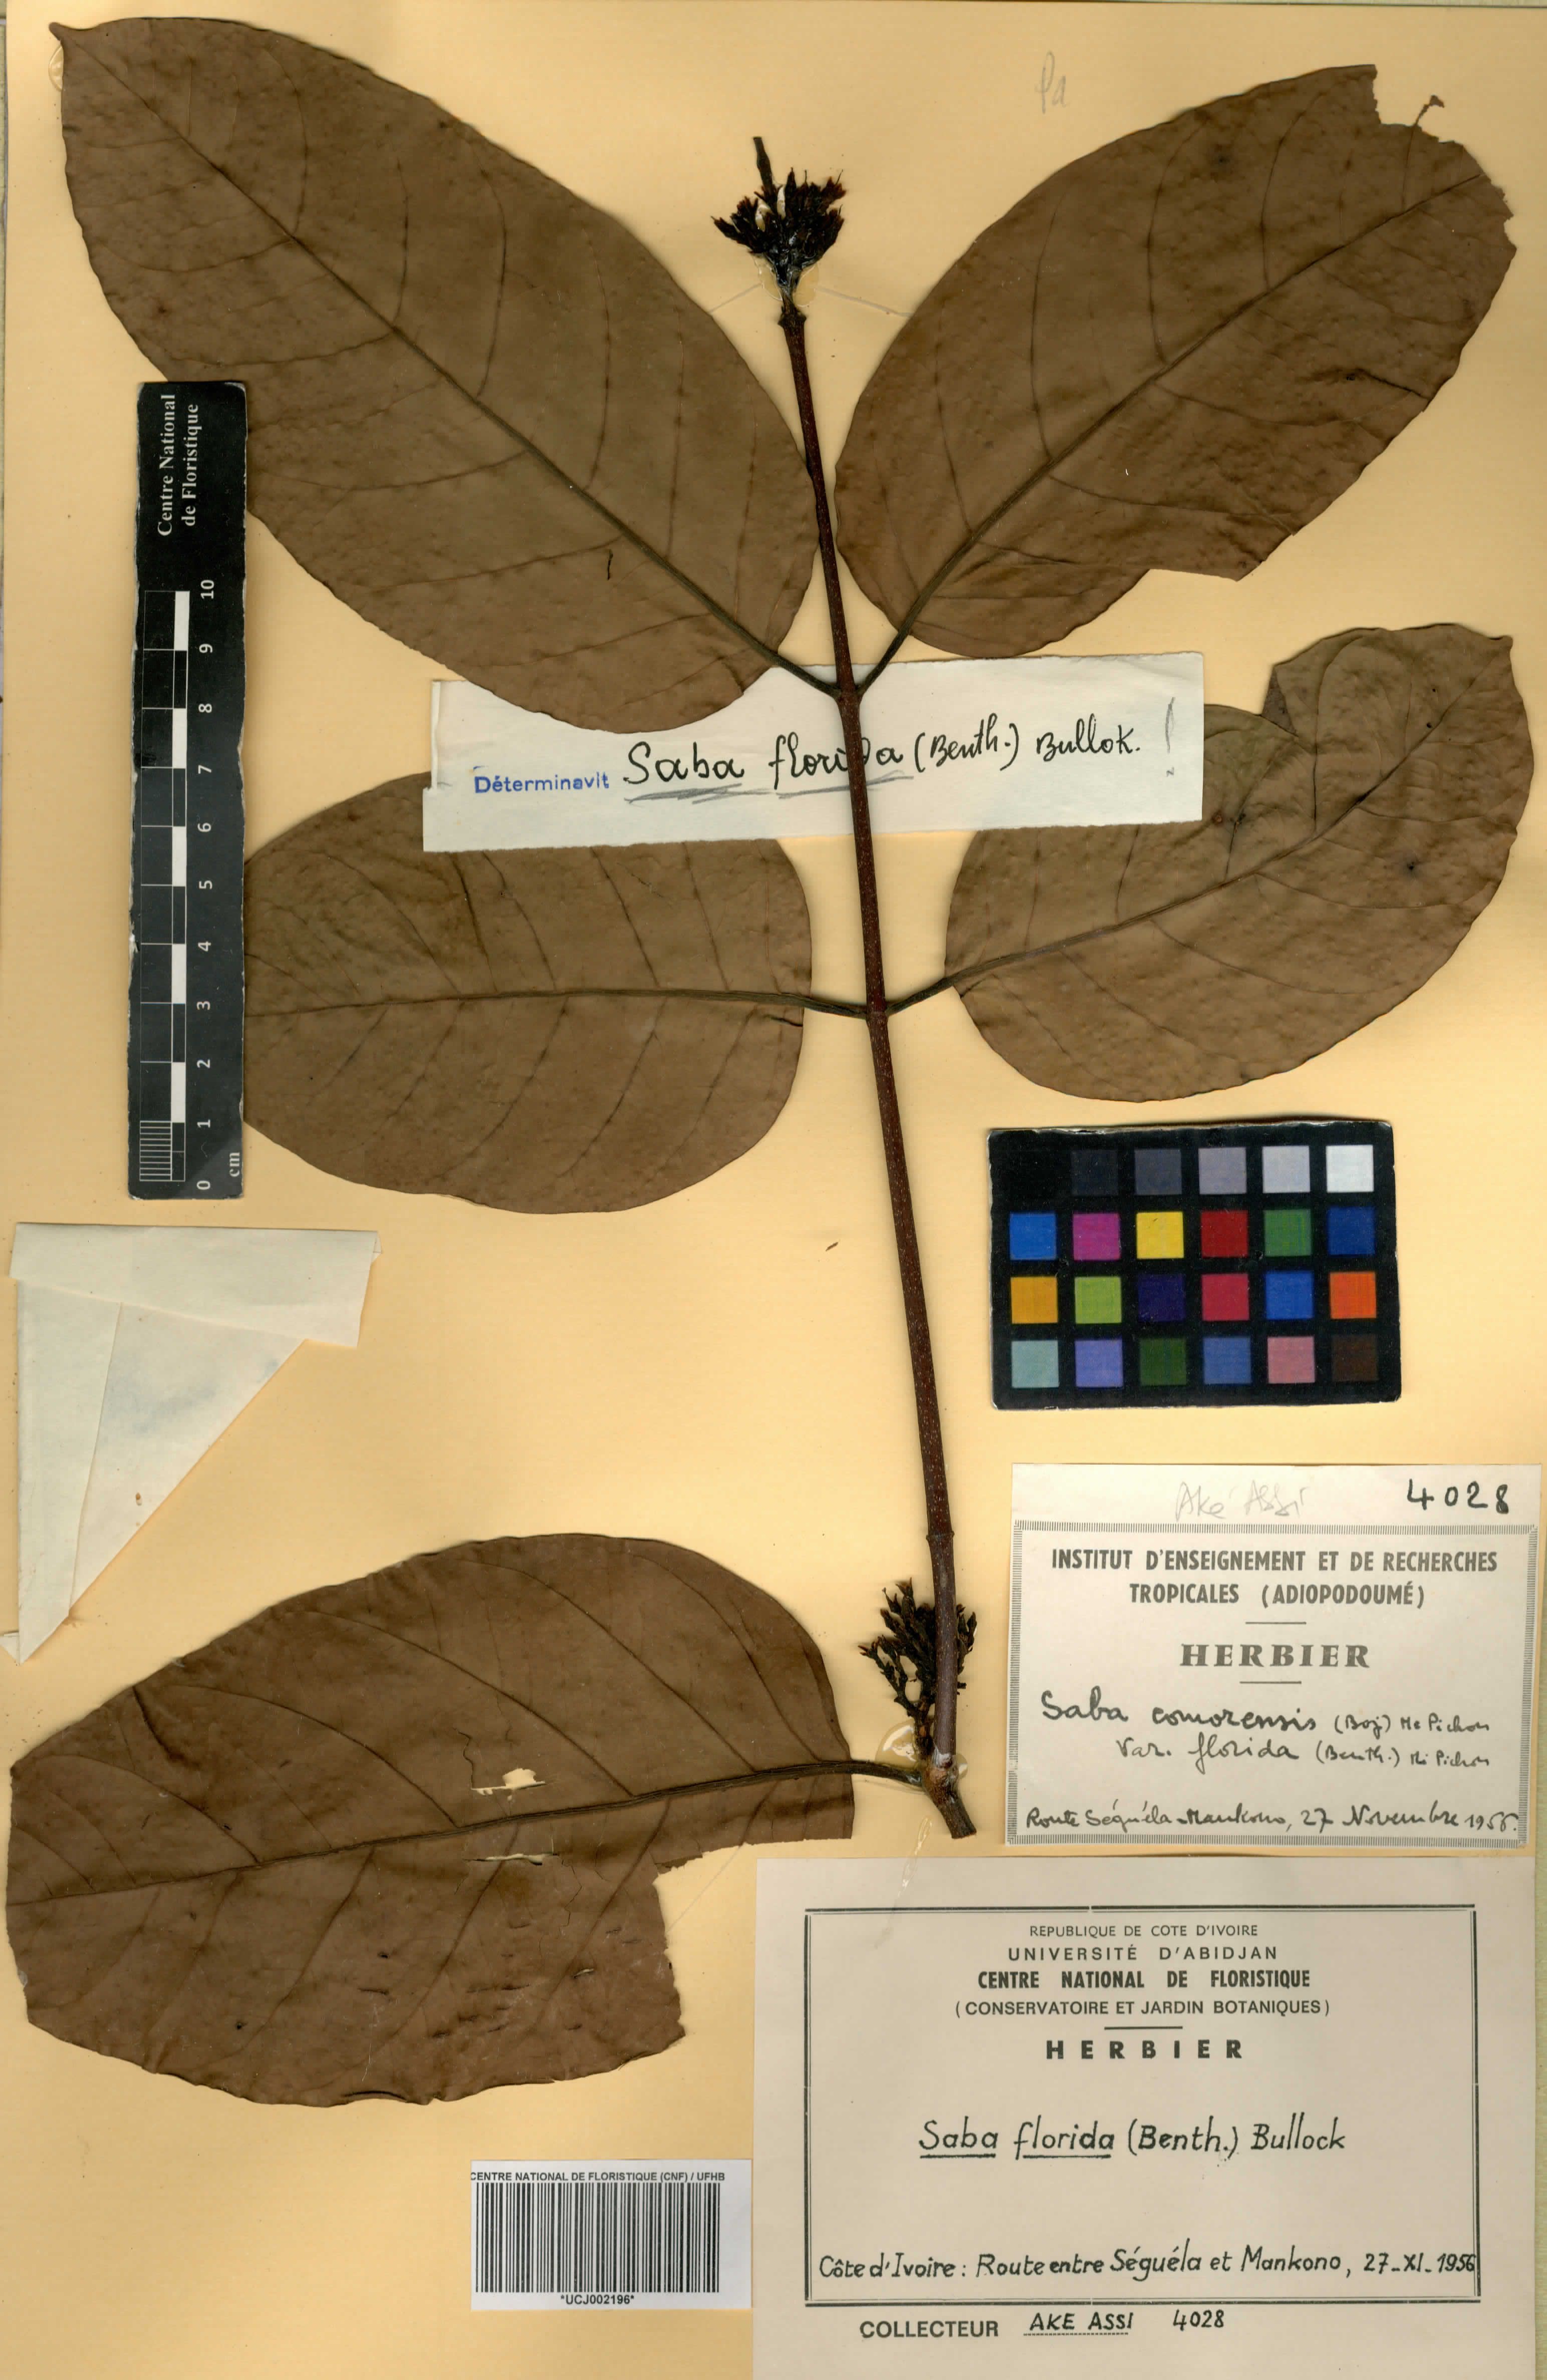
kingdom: Plantae
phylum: Tracheophyta
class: Magnoliopsida
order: Gentianales
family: Apocynaceae
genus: Saba
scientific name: Saba comorensis
